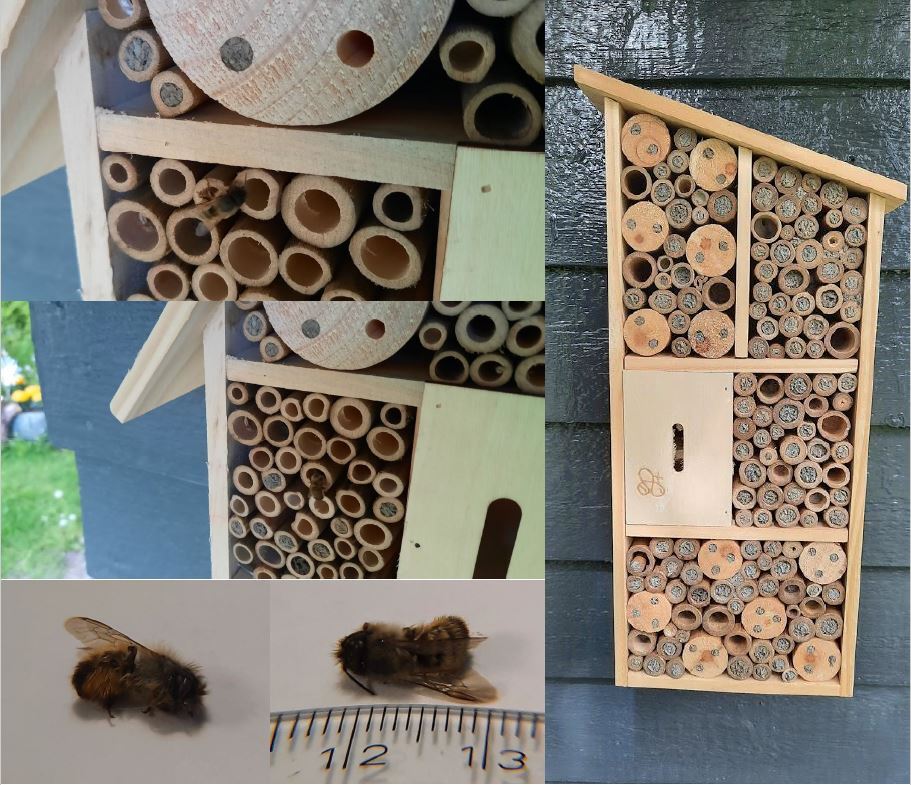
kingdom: Animalia
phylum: Arthropoda
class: Insecta
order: Hymenoptera
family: Megachilidae
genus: Osmia
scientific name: Osmia bicornis
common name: Red mason bee
